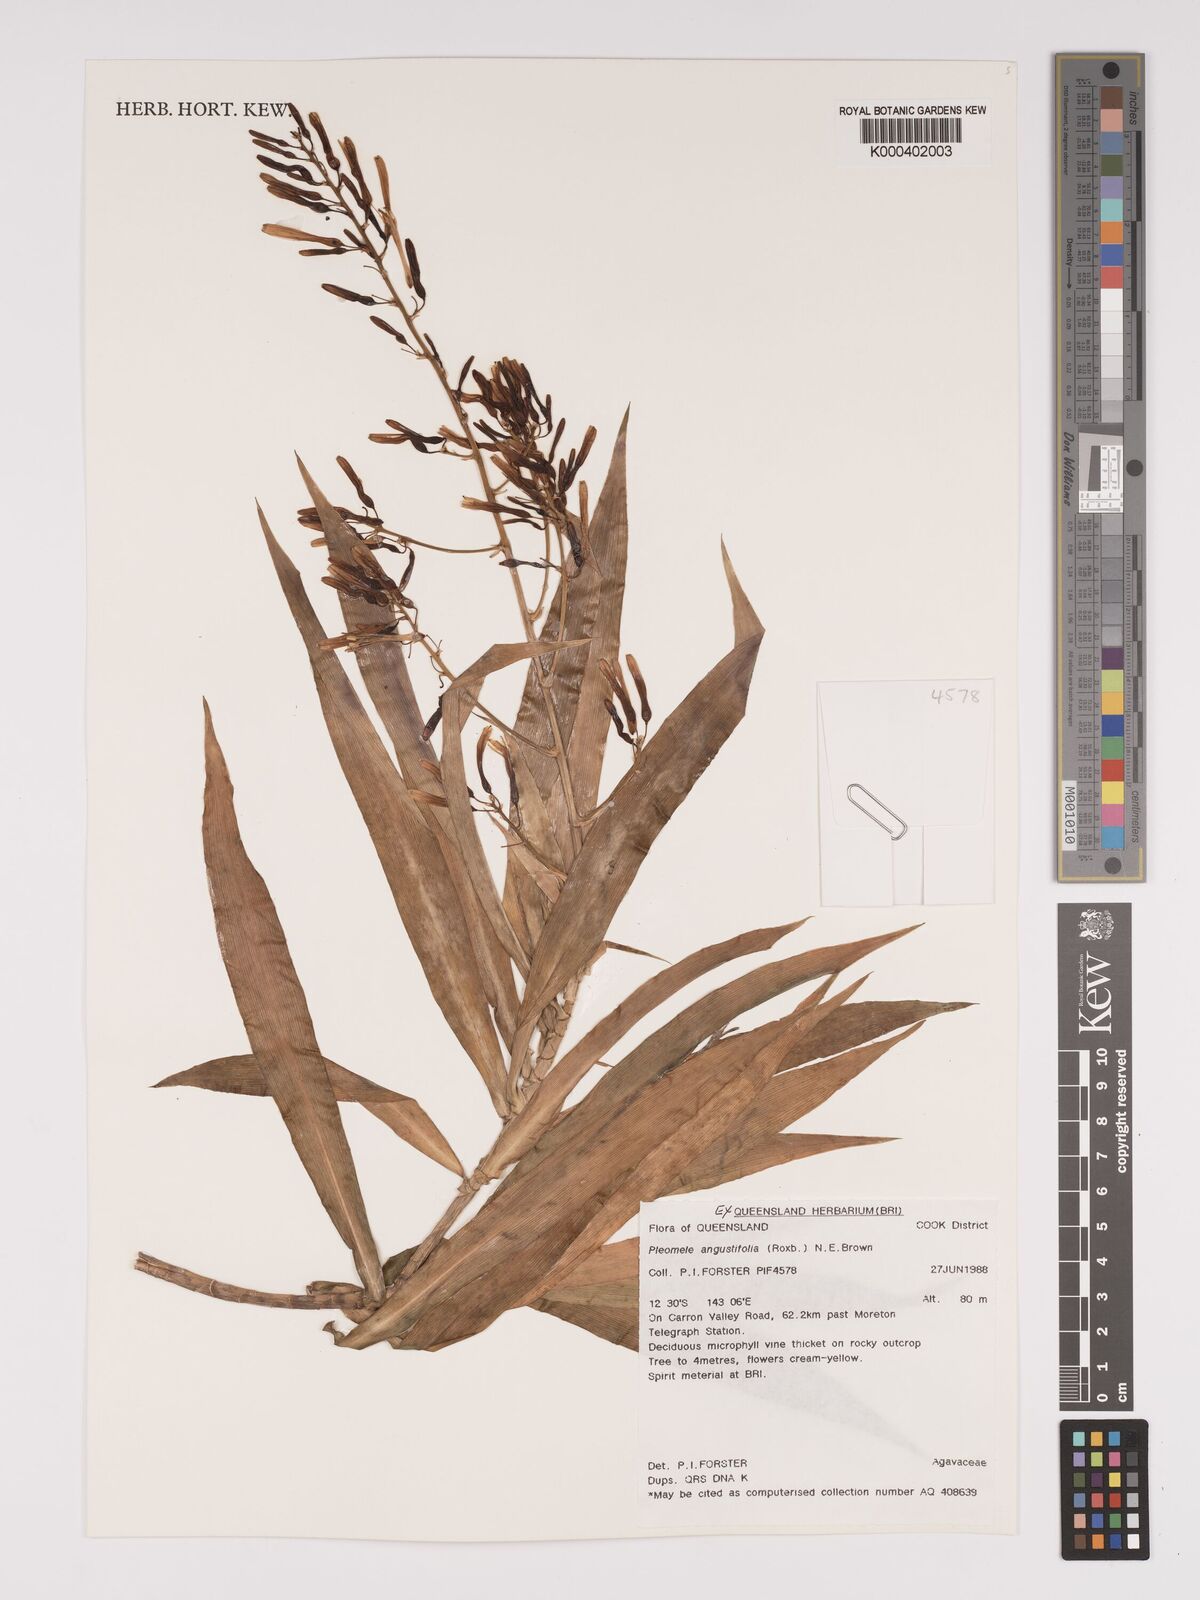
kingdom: Plantae
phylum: Tracheophyta
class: Liliopsida
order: Asparagales
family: Asparagaceae
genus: Dracaena
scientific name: Dracaena angustifolia
